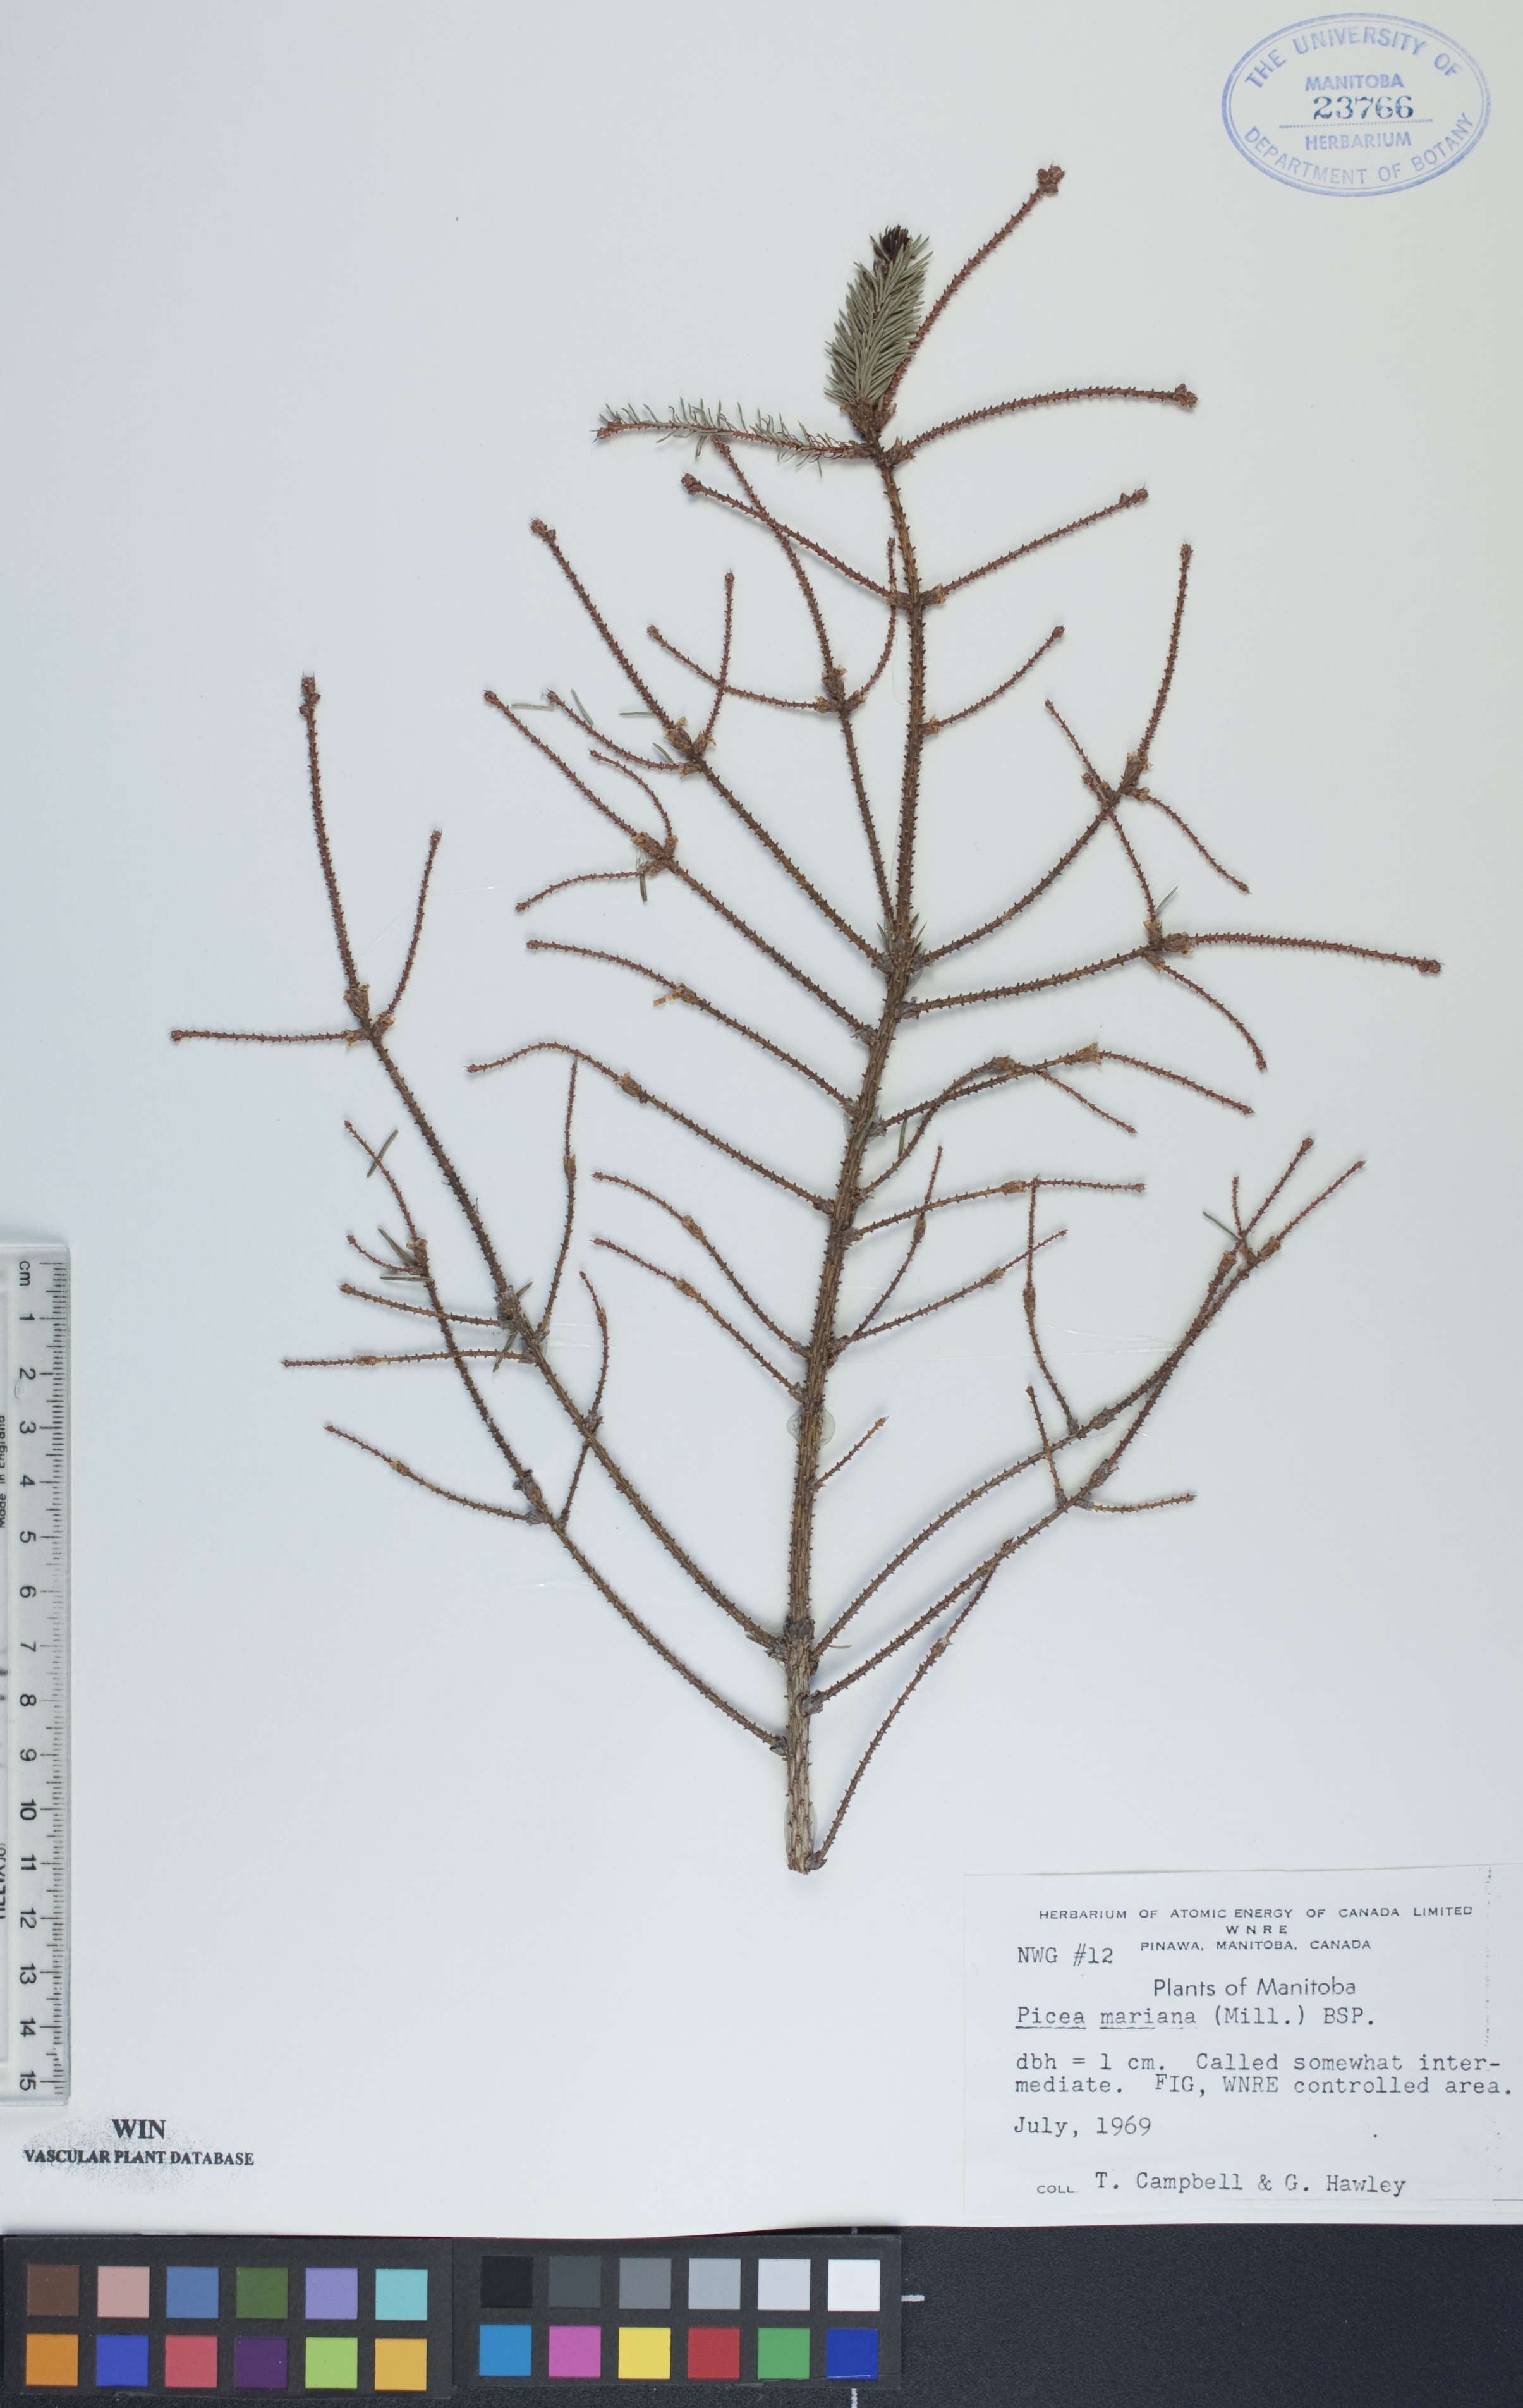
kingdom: Plantae
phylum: Tracheophyta
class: Pinopsida
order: Pinales
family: Pinaceae
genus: Picea
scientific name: Picea mariana
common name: Black spruce
